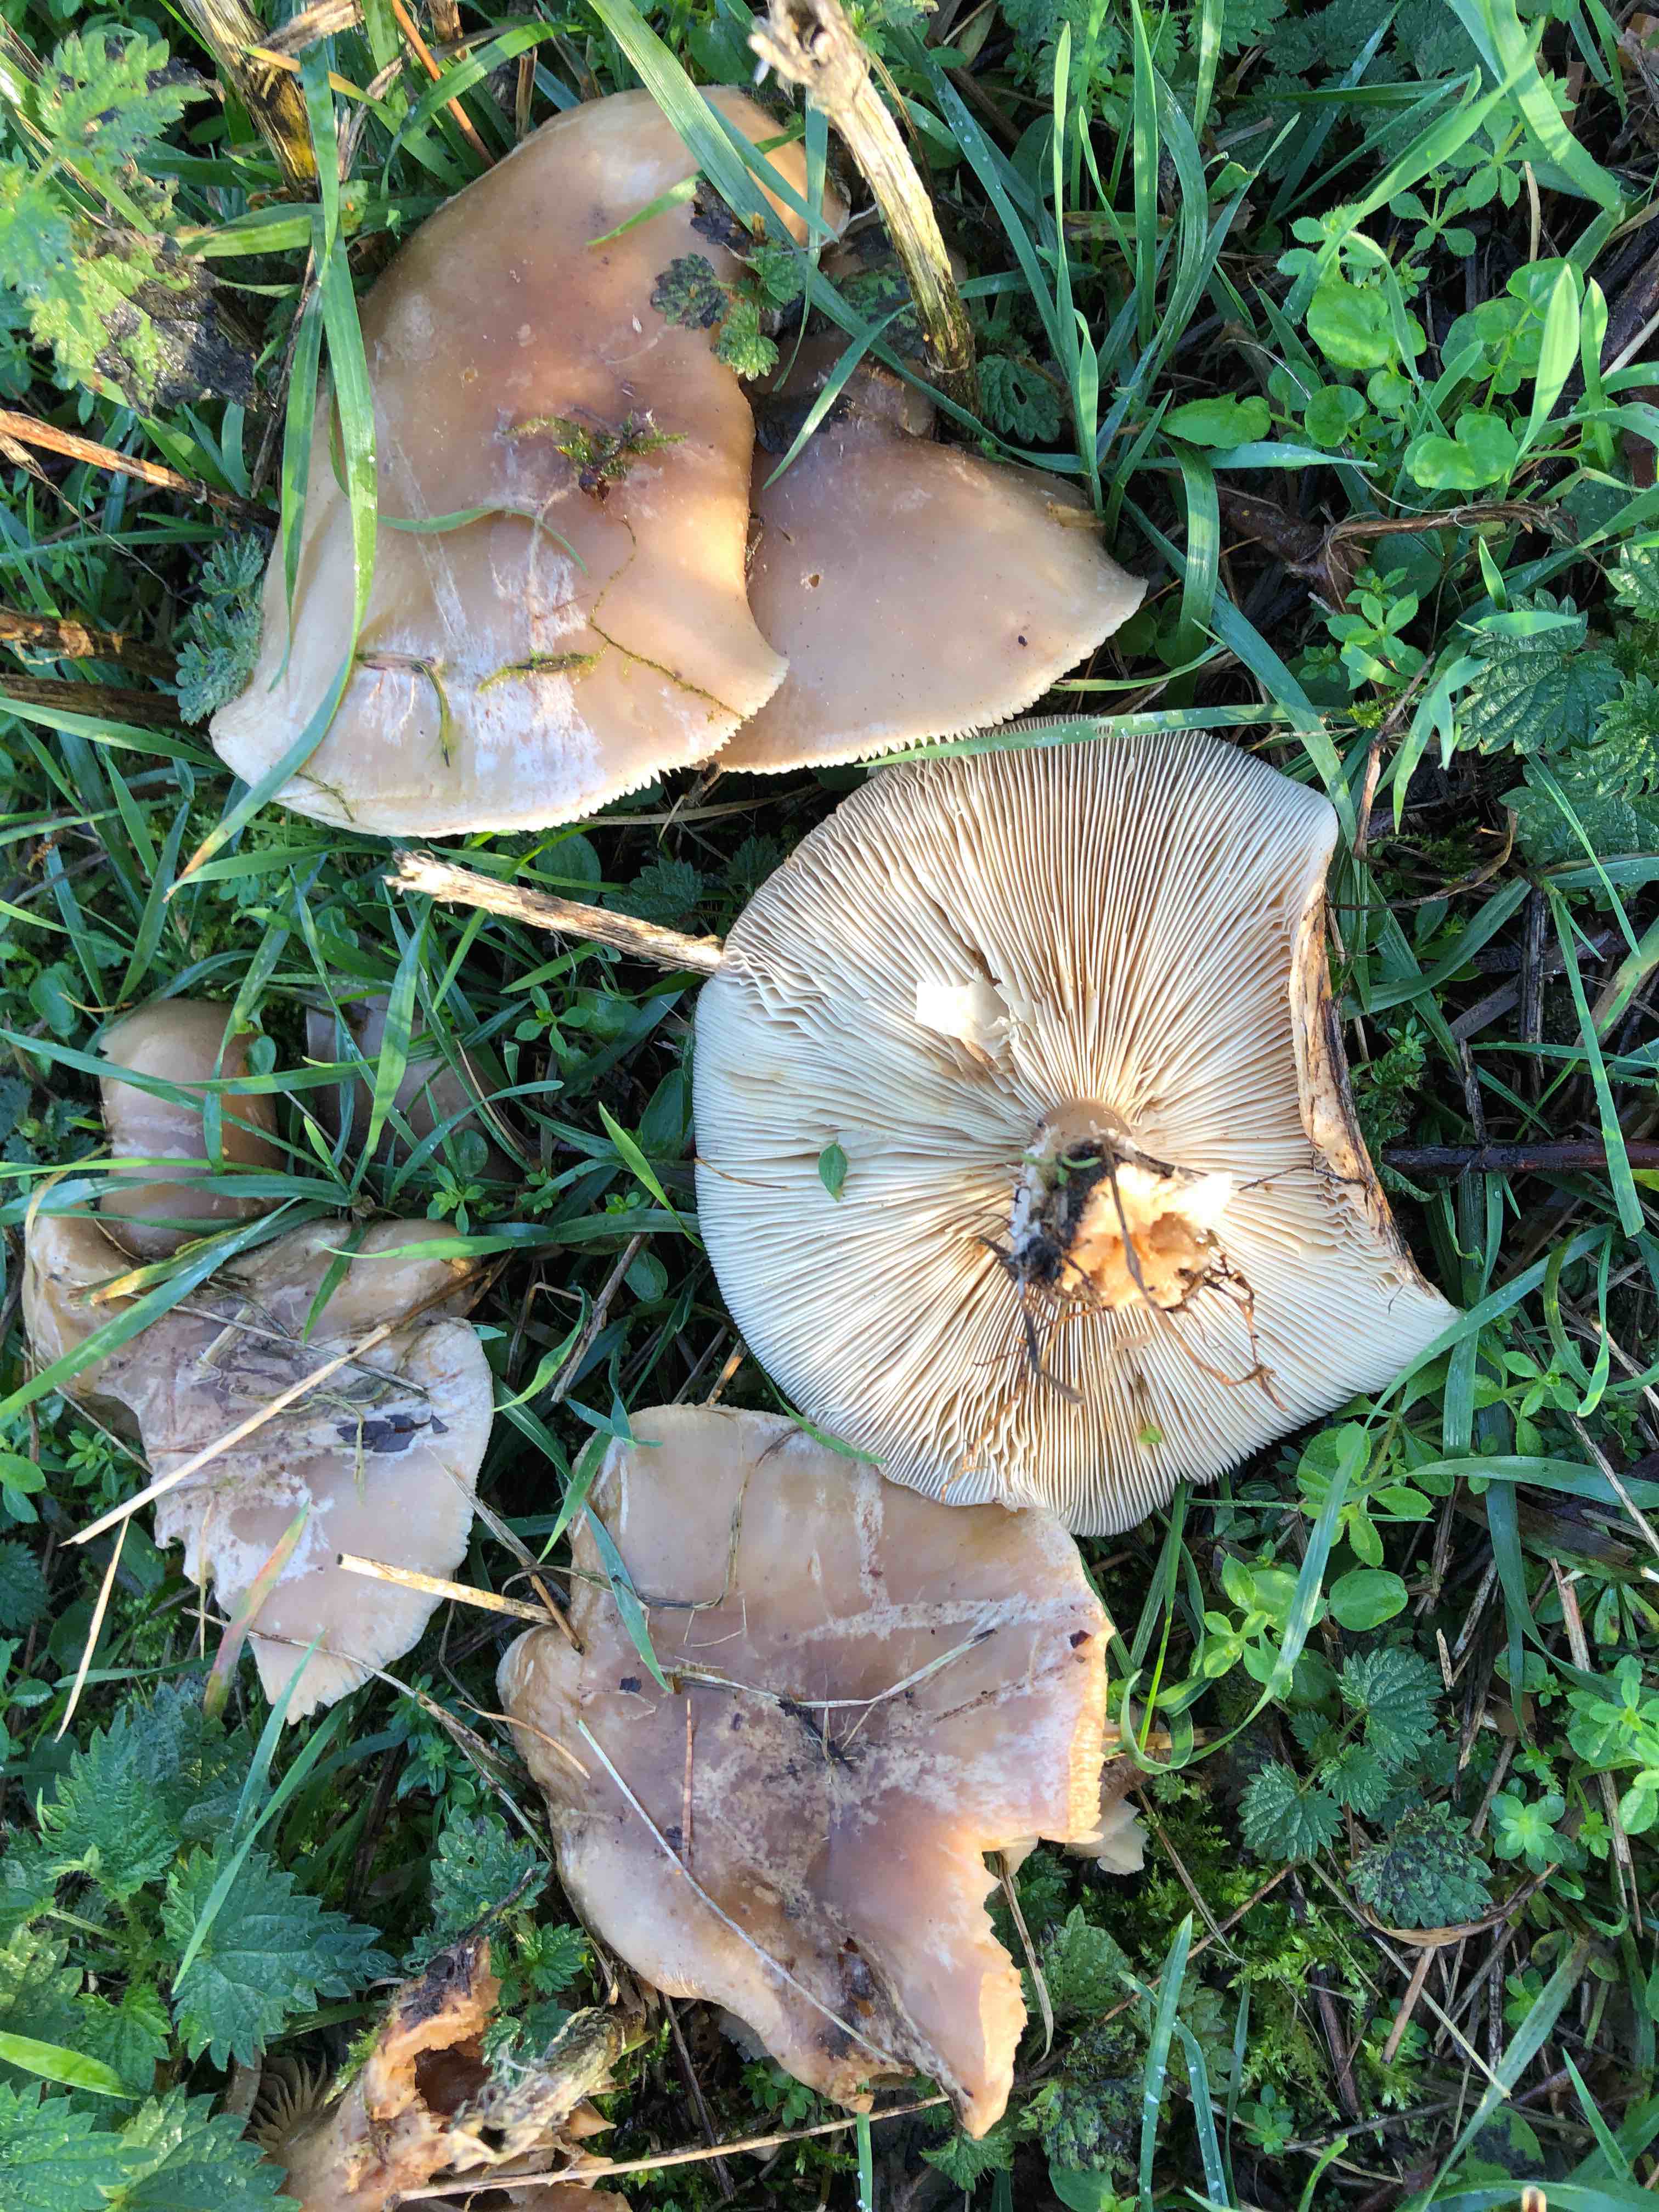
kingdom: Fungi
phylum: Basidiomycota
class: Agaricomycetes
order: Agaricales
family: Tricholomataceae
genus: Lepista
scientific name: Lepista
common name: hekseringshat
